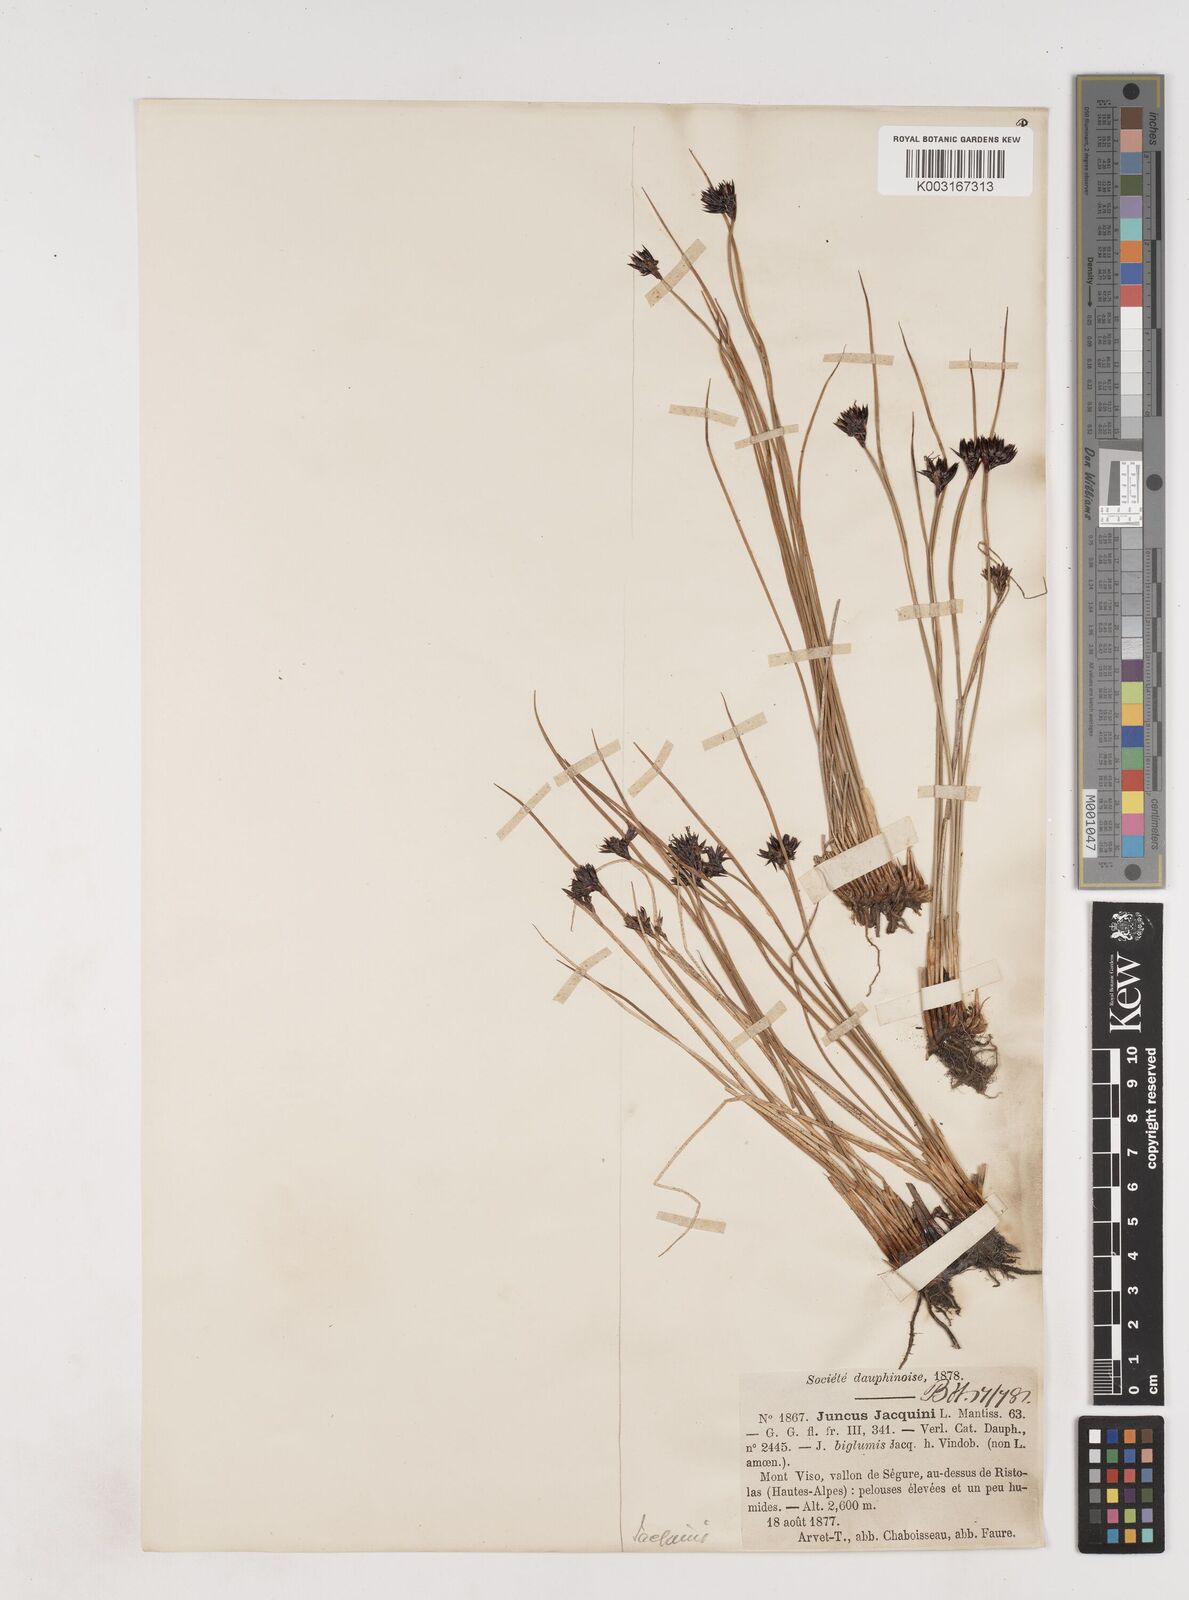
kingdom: Plantae
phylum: Tracheophyta
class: Liliopsida
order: Poales
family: Juncaceae
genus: Juncus
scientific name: Juncus jacquinii
